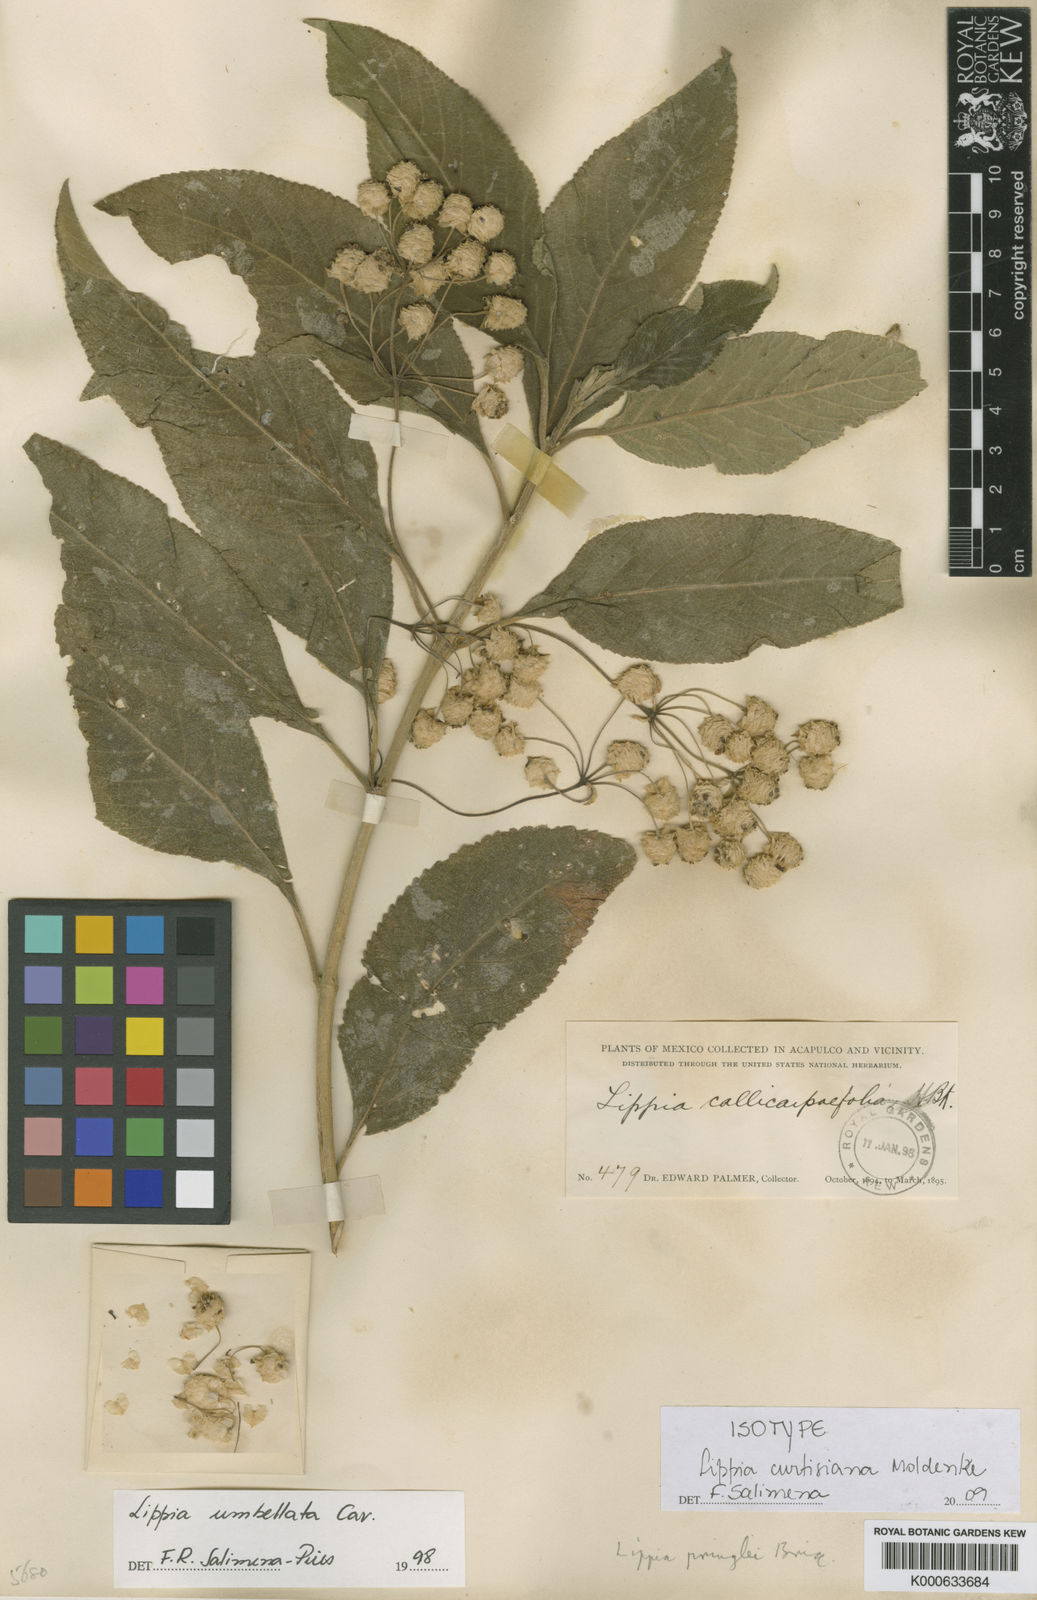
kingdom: Plantae
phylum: Tracheophyta
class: Magnoliopsida
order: Lamiales
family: Verbenaceae
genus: Lippia
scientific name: Lippia chiapasensis
